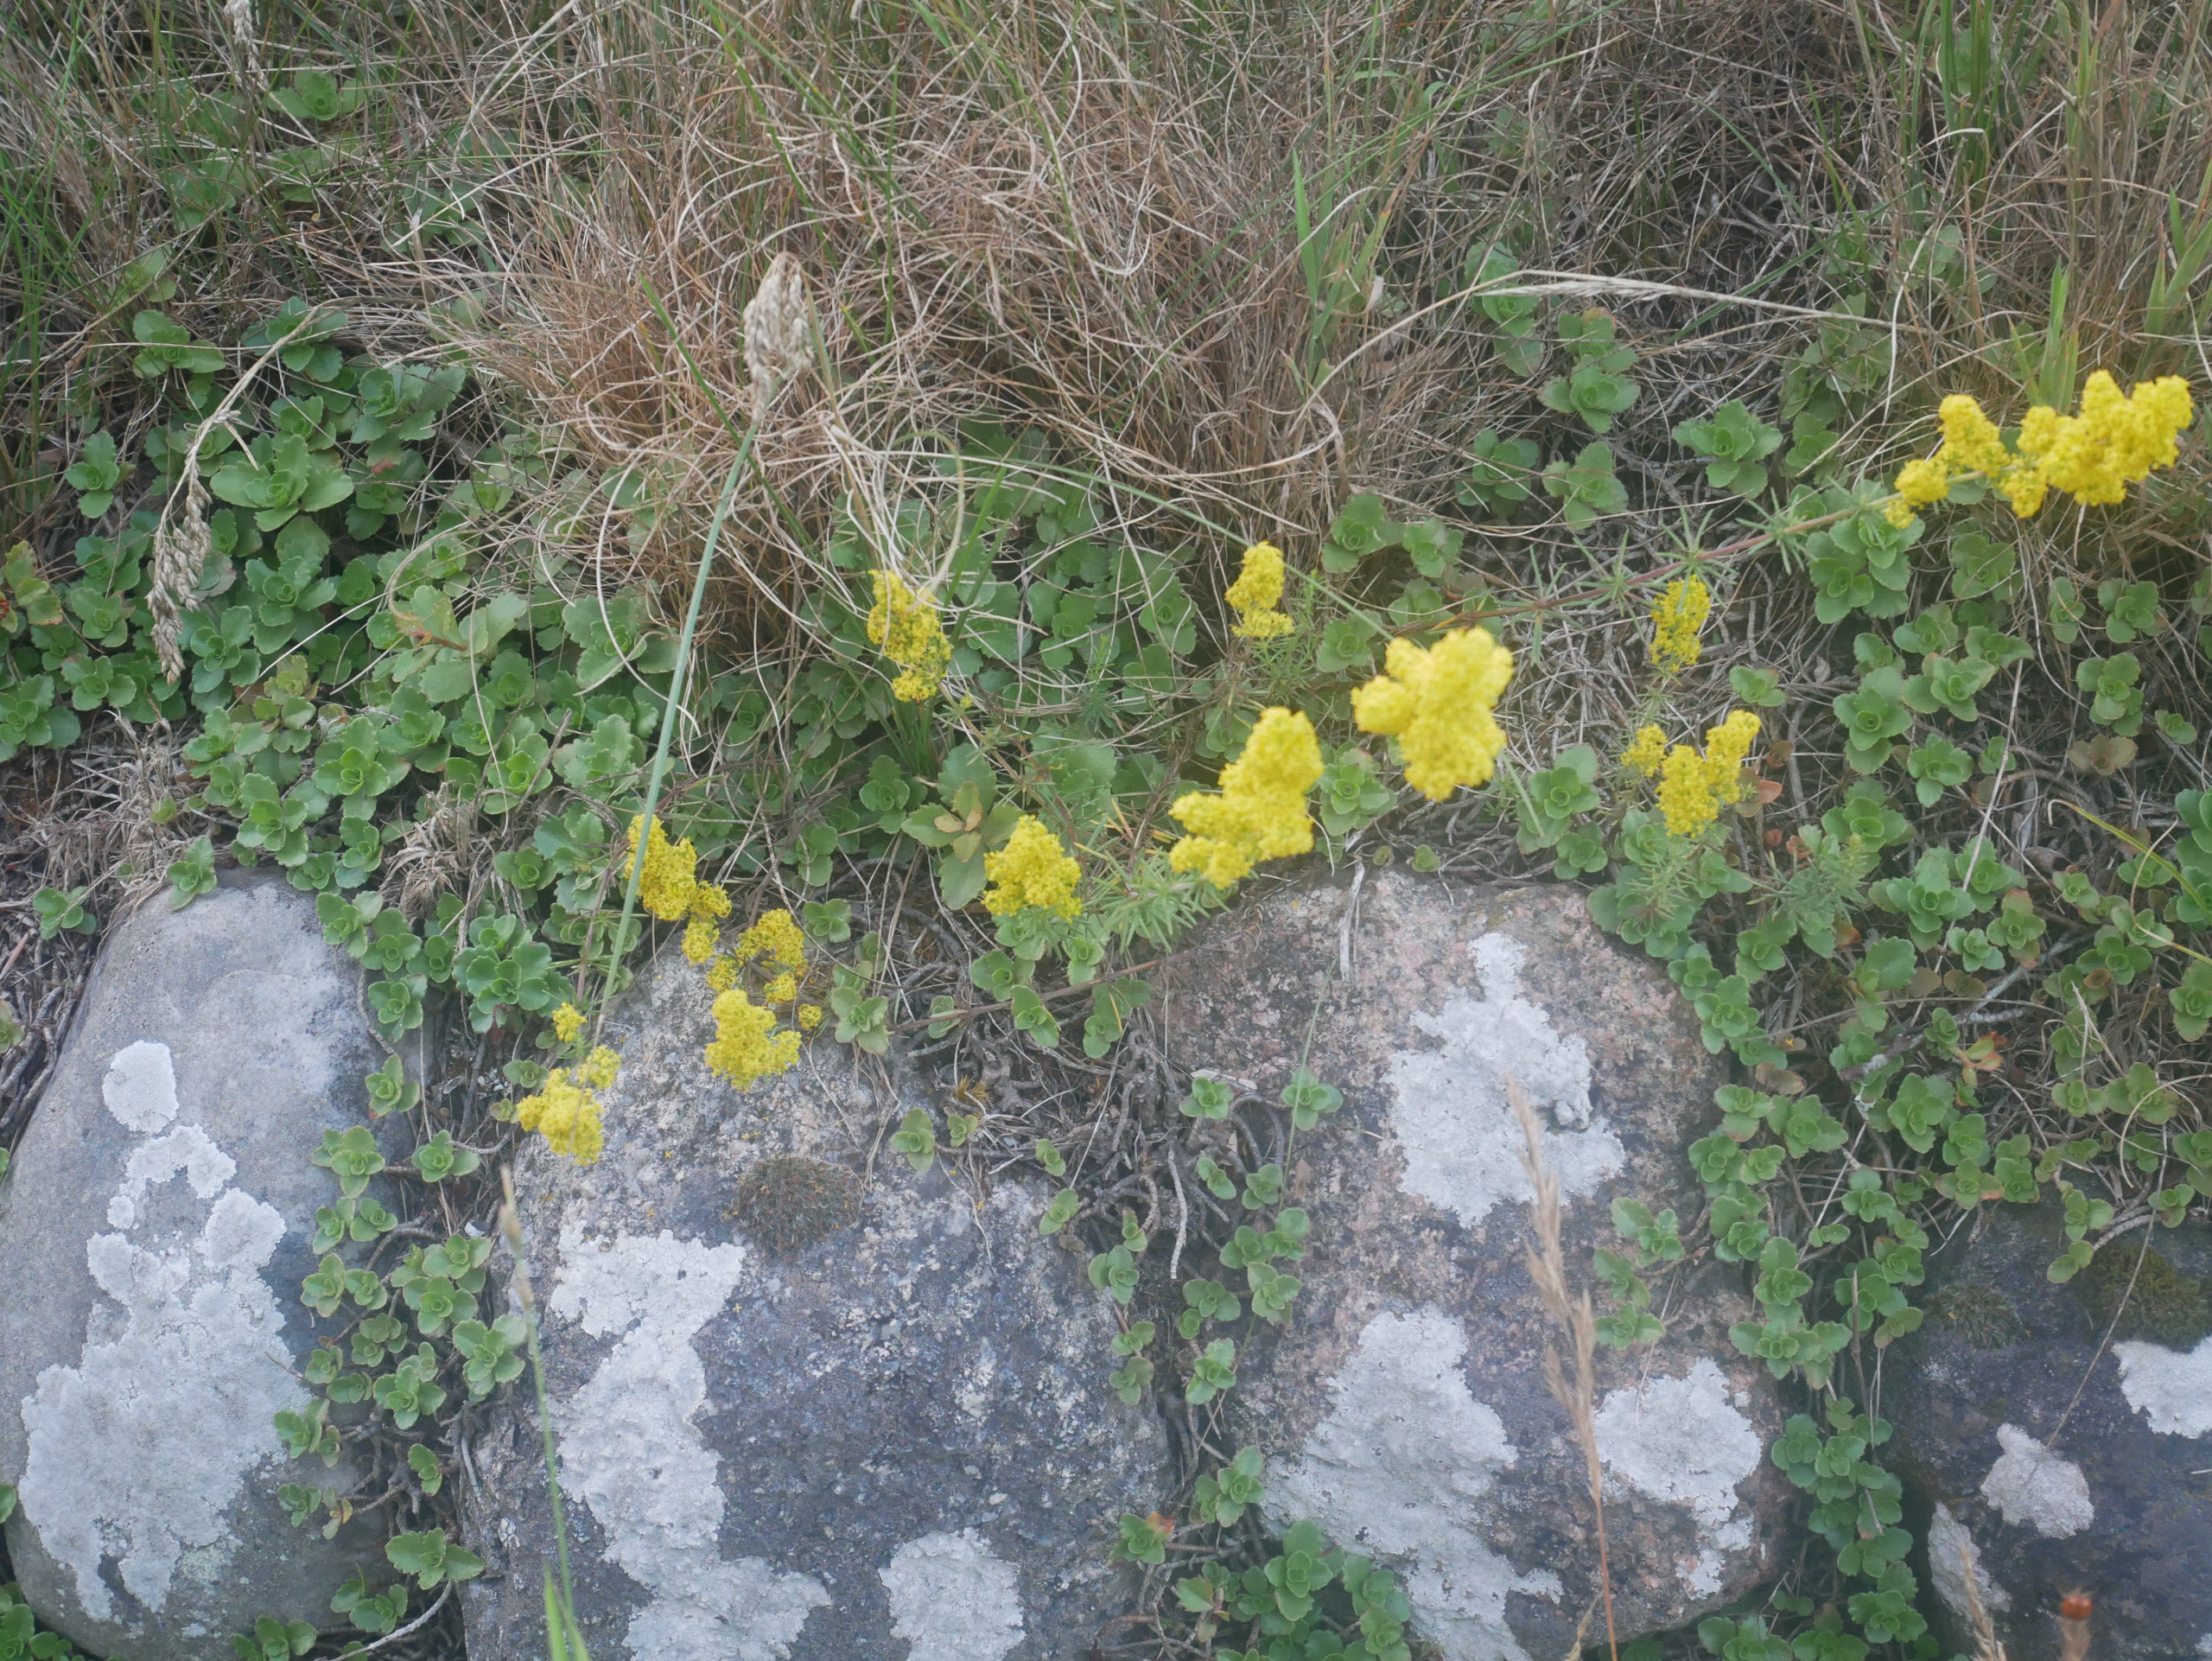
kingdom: Plantae
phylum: Tracheophyta
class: Magnoliopsida
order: Gentianales
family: Rubiaceae
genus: Galium
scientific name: Galium verum
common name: Gul snerre
